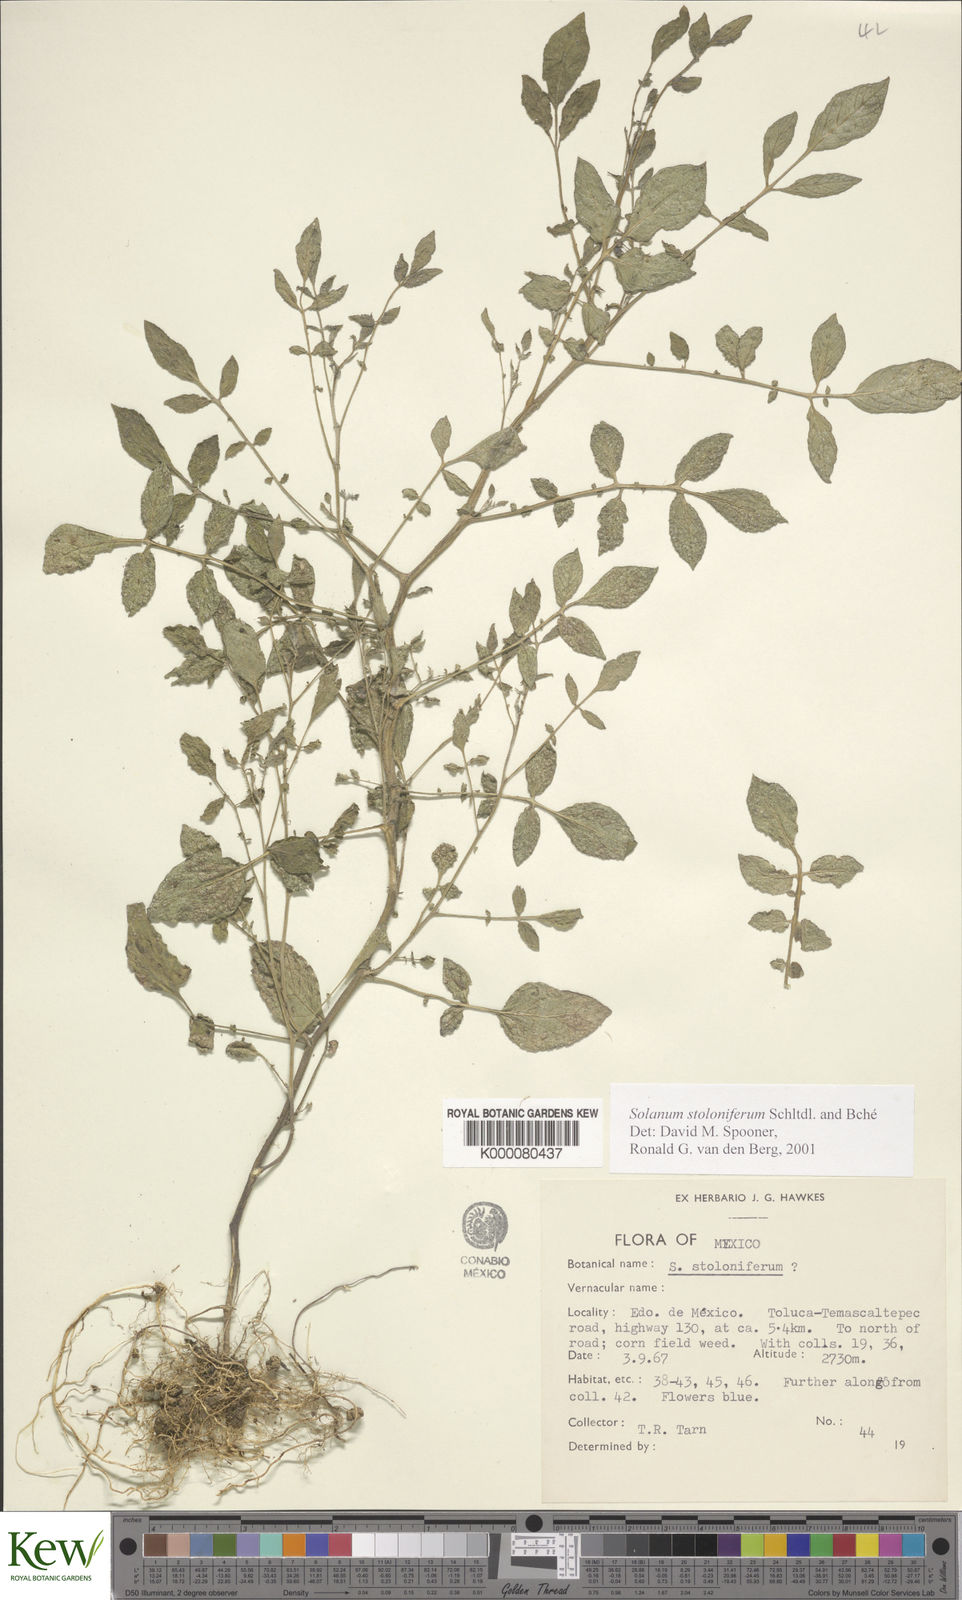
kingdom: Plantae
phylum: Tracheophyta
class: Magnoliopsida
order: Solanales
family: Solanaceae
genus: Solanum
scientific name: Solanum stoloniferum
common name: Fendler's nighshade
